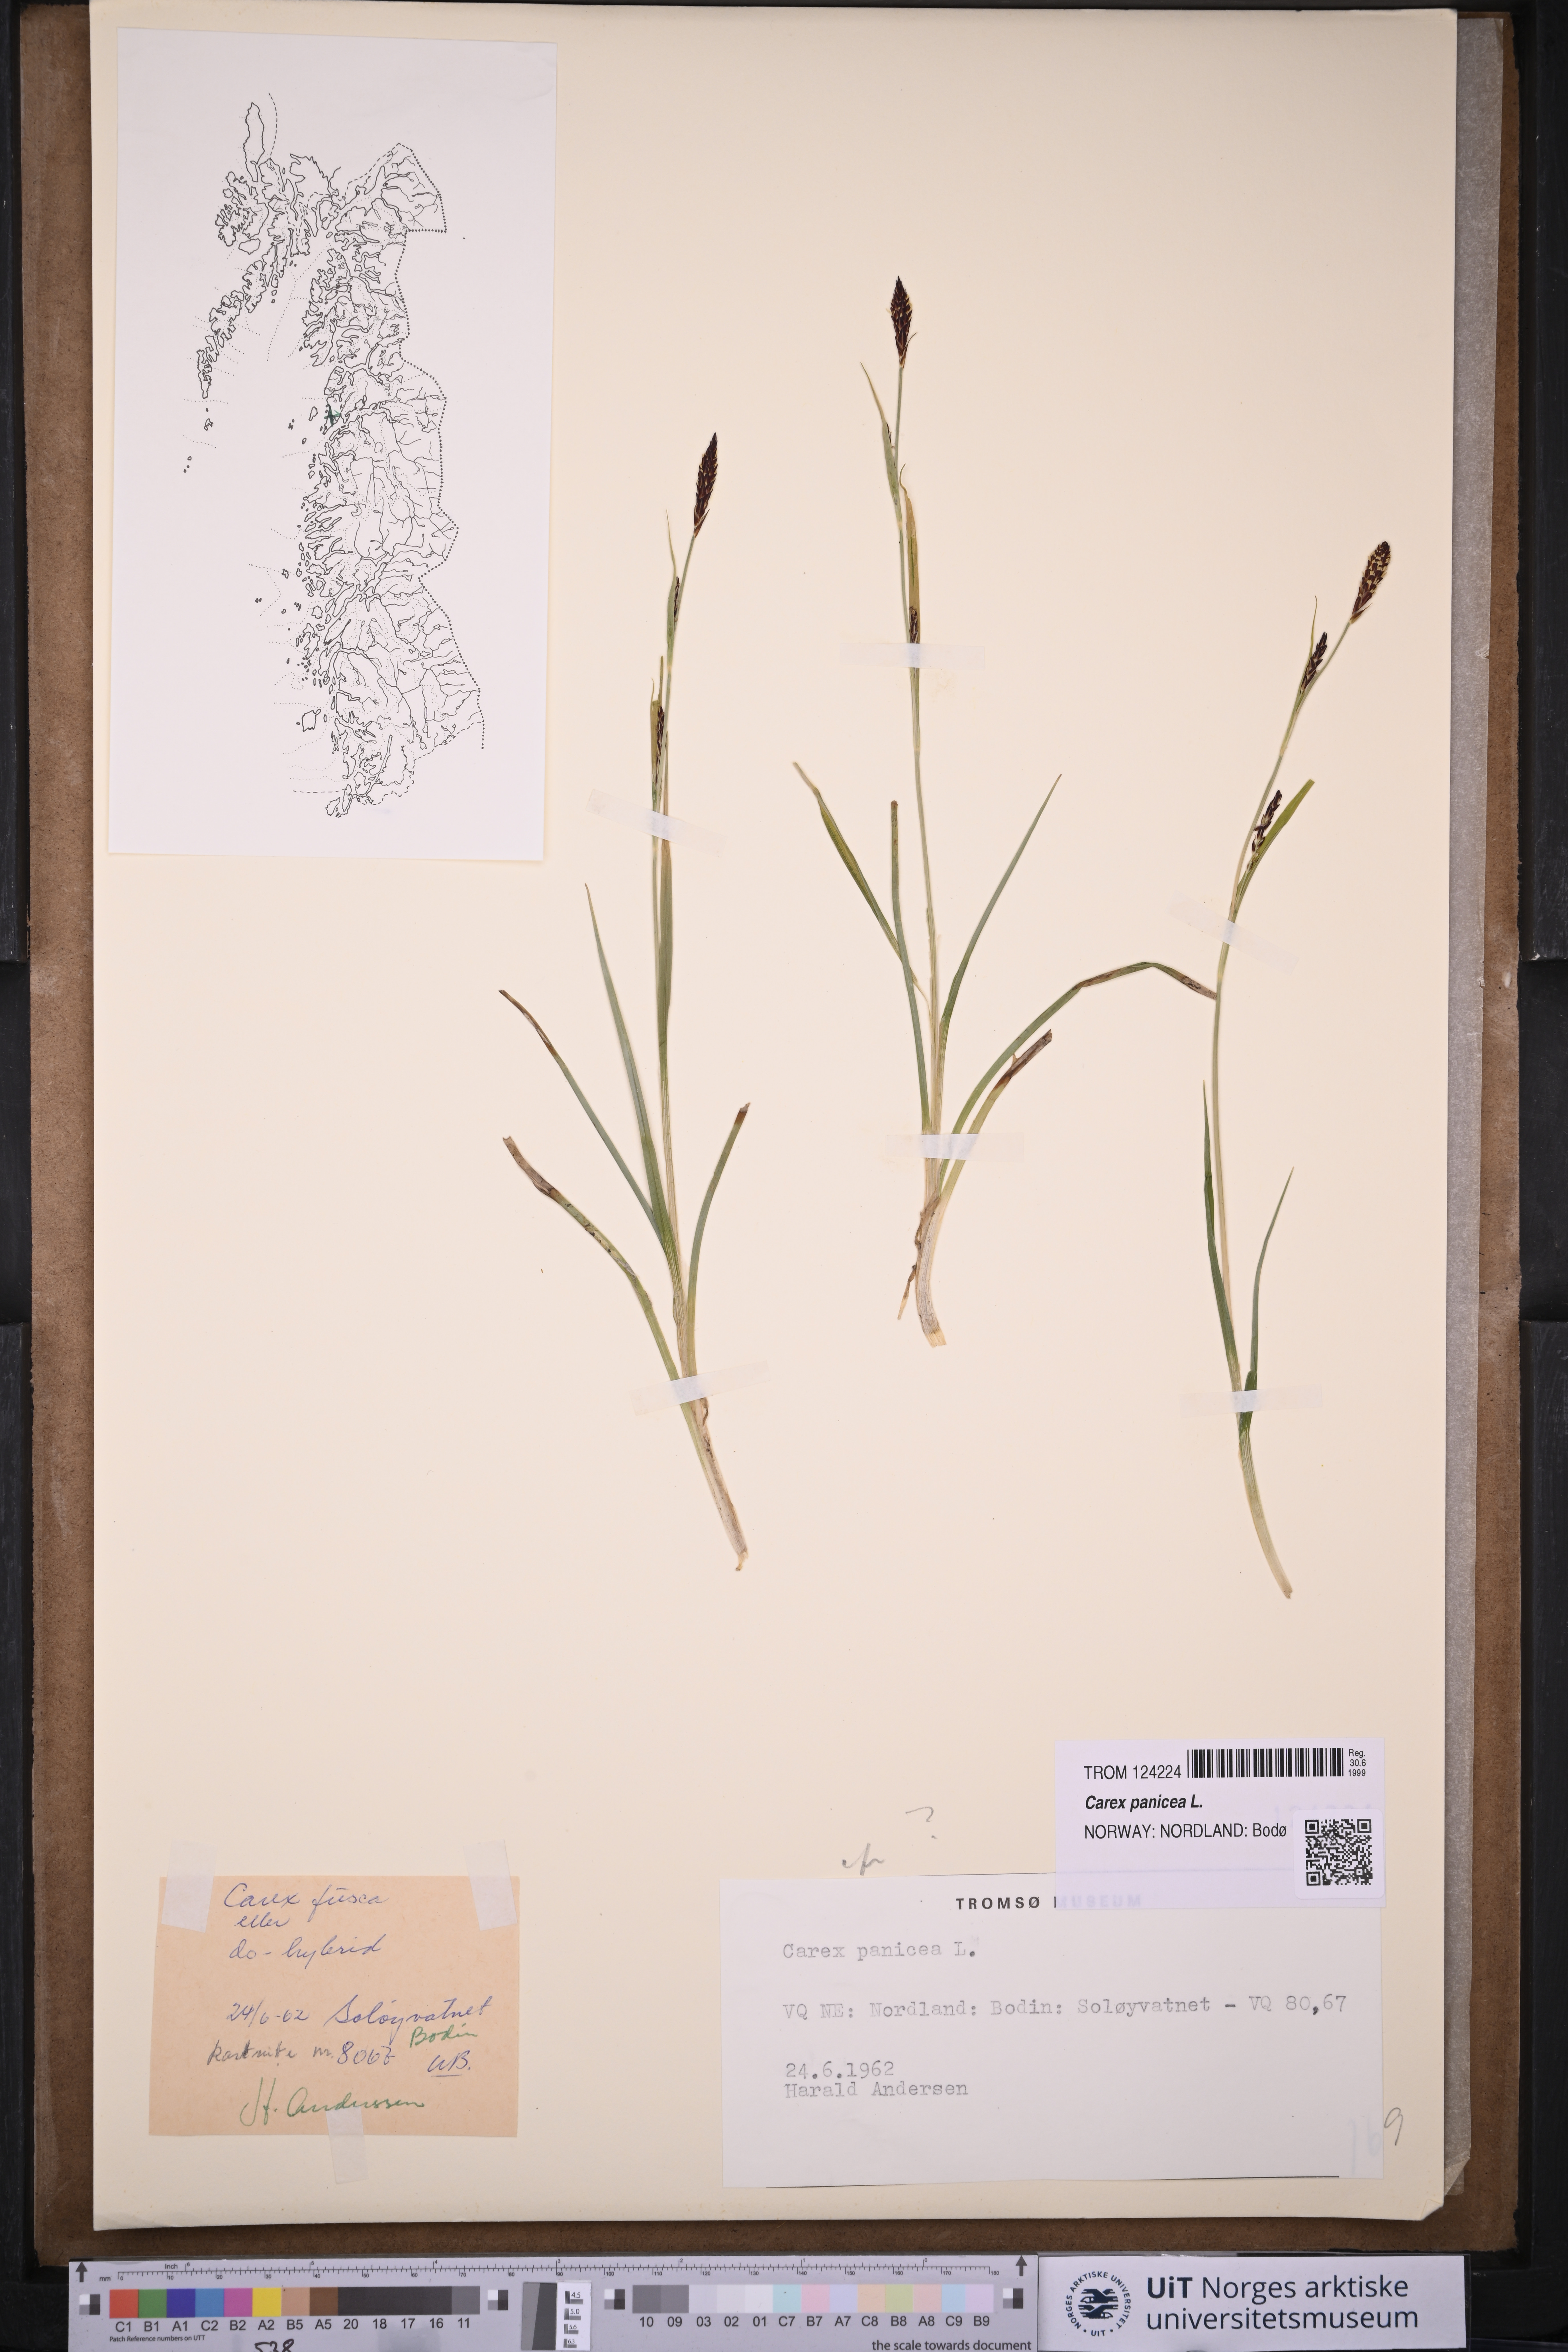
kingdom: Plantae
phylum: Tracheophyta
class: Liliopsida
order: Poales
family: Cyperaceae
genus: Carex
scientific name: Carex panicea
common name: Carnation sedge
